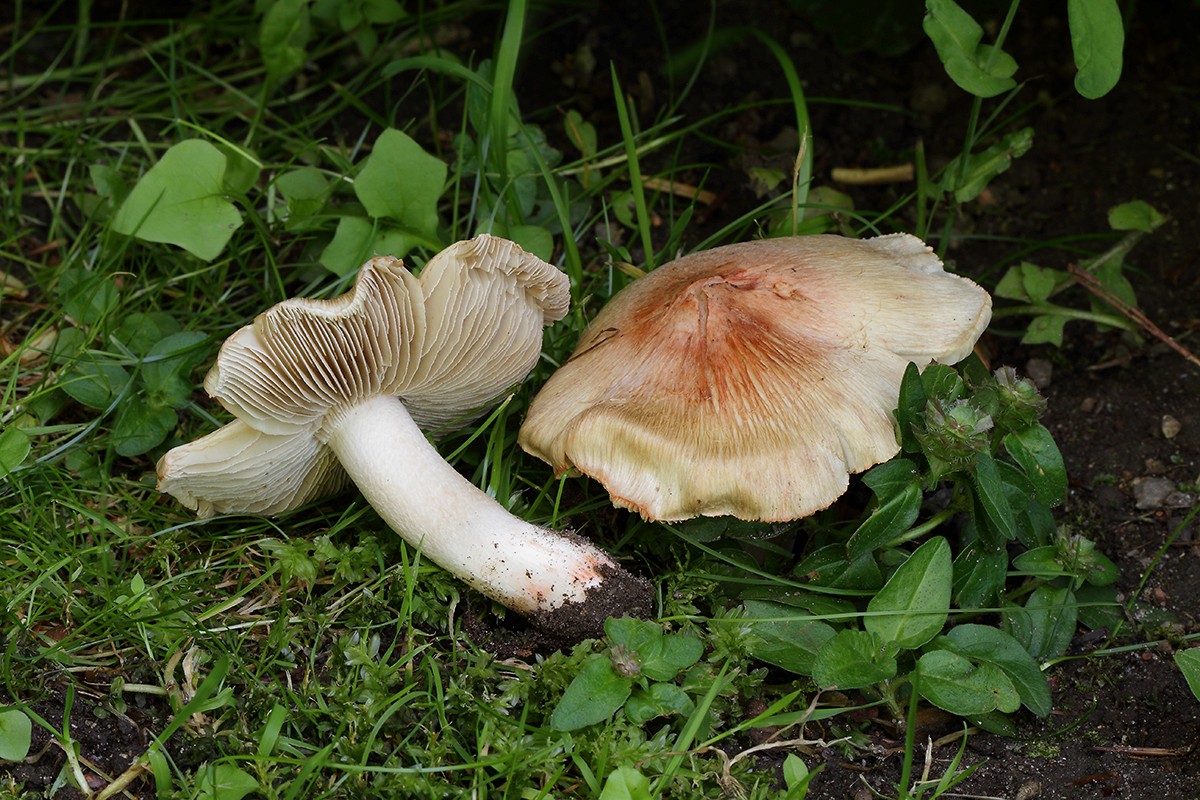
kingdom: Fungi
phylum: Basidiomycota
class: Agaricomycetes
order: Agaricales
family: Inocybaceae
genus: Inosperma
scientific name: Inosperma erubescens
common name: giftig trævlhat
